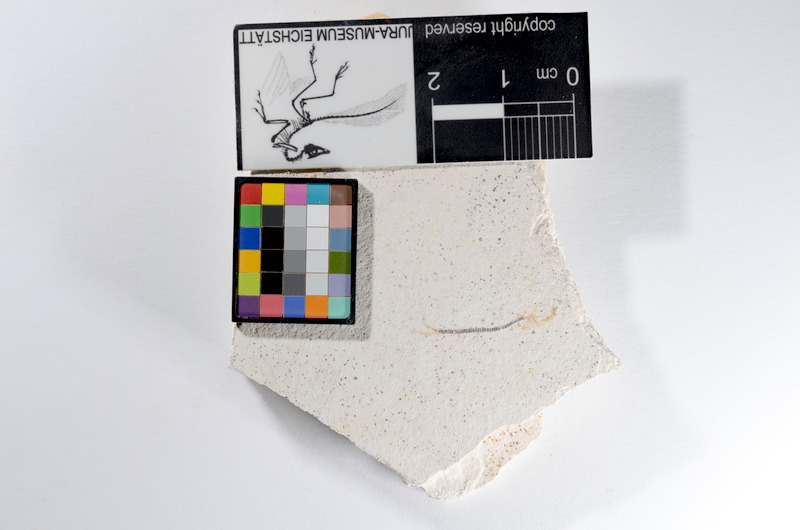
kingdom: Animalia
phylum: Chordata
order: Salmoniformes
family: Orthogonikleithridae
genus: Orthogonikleithrus
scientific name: Orthogonikleithrus hoelli
